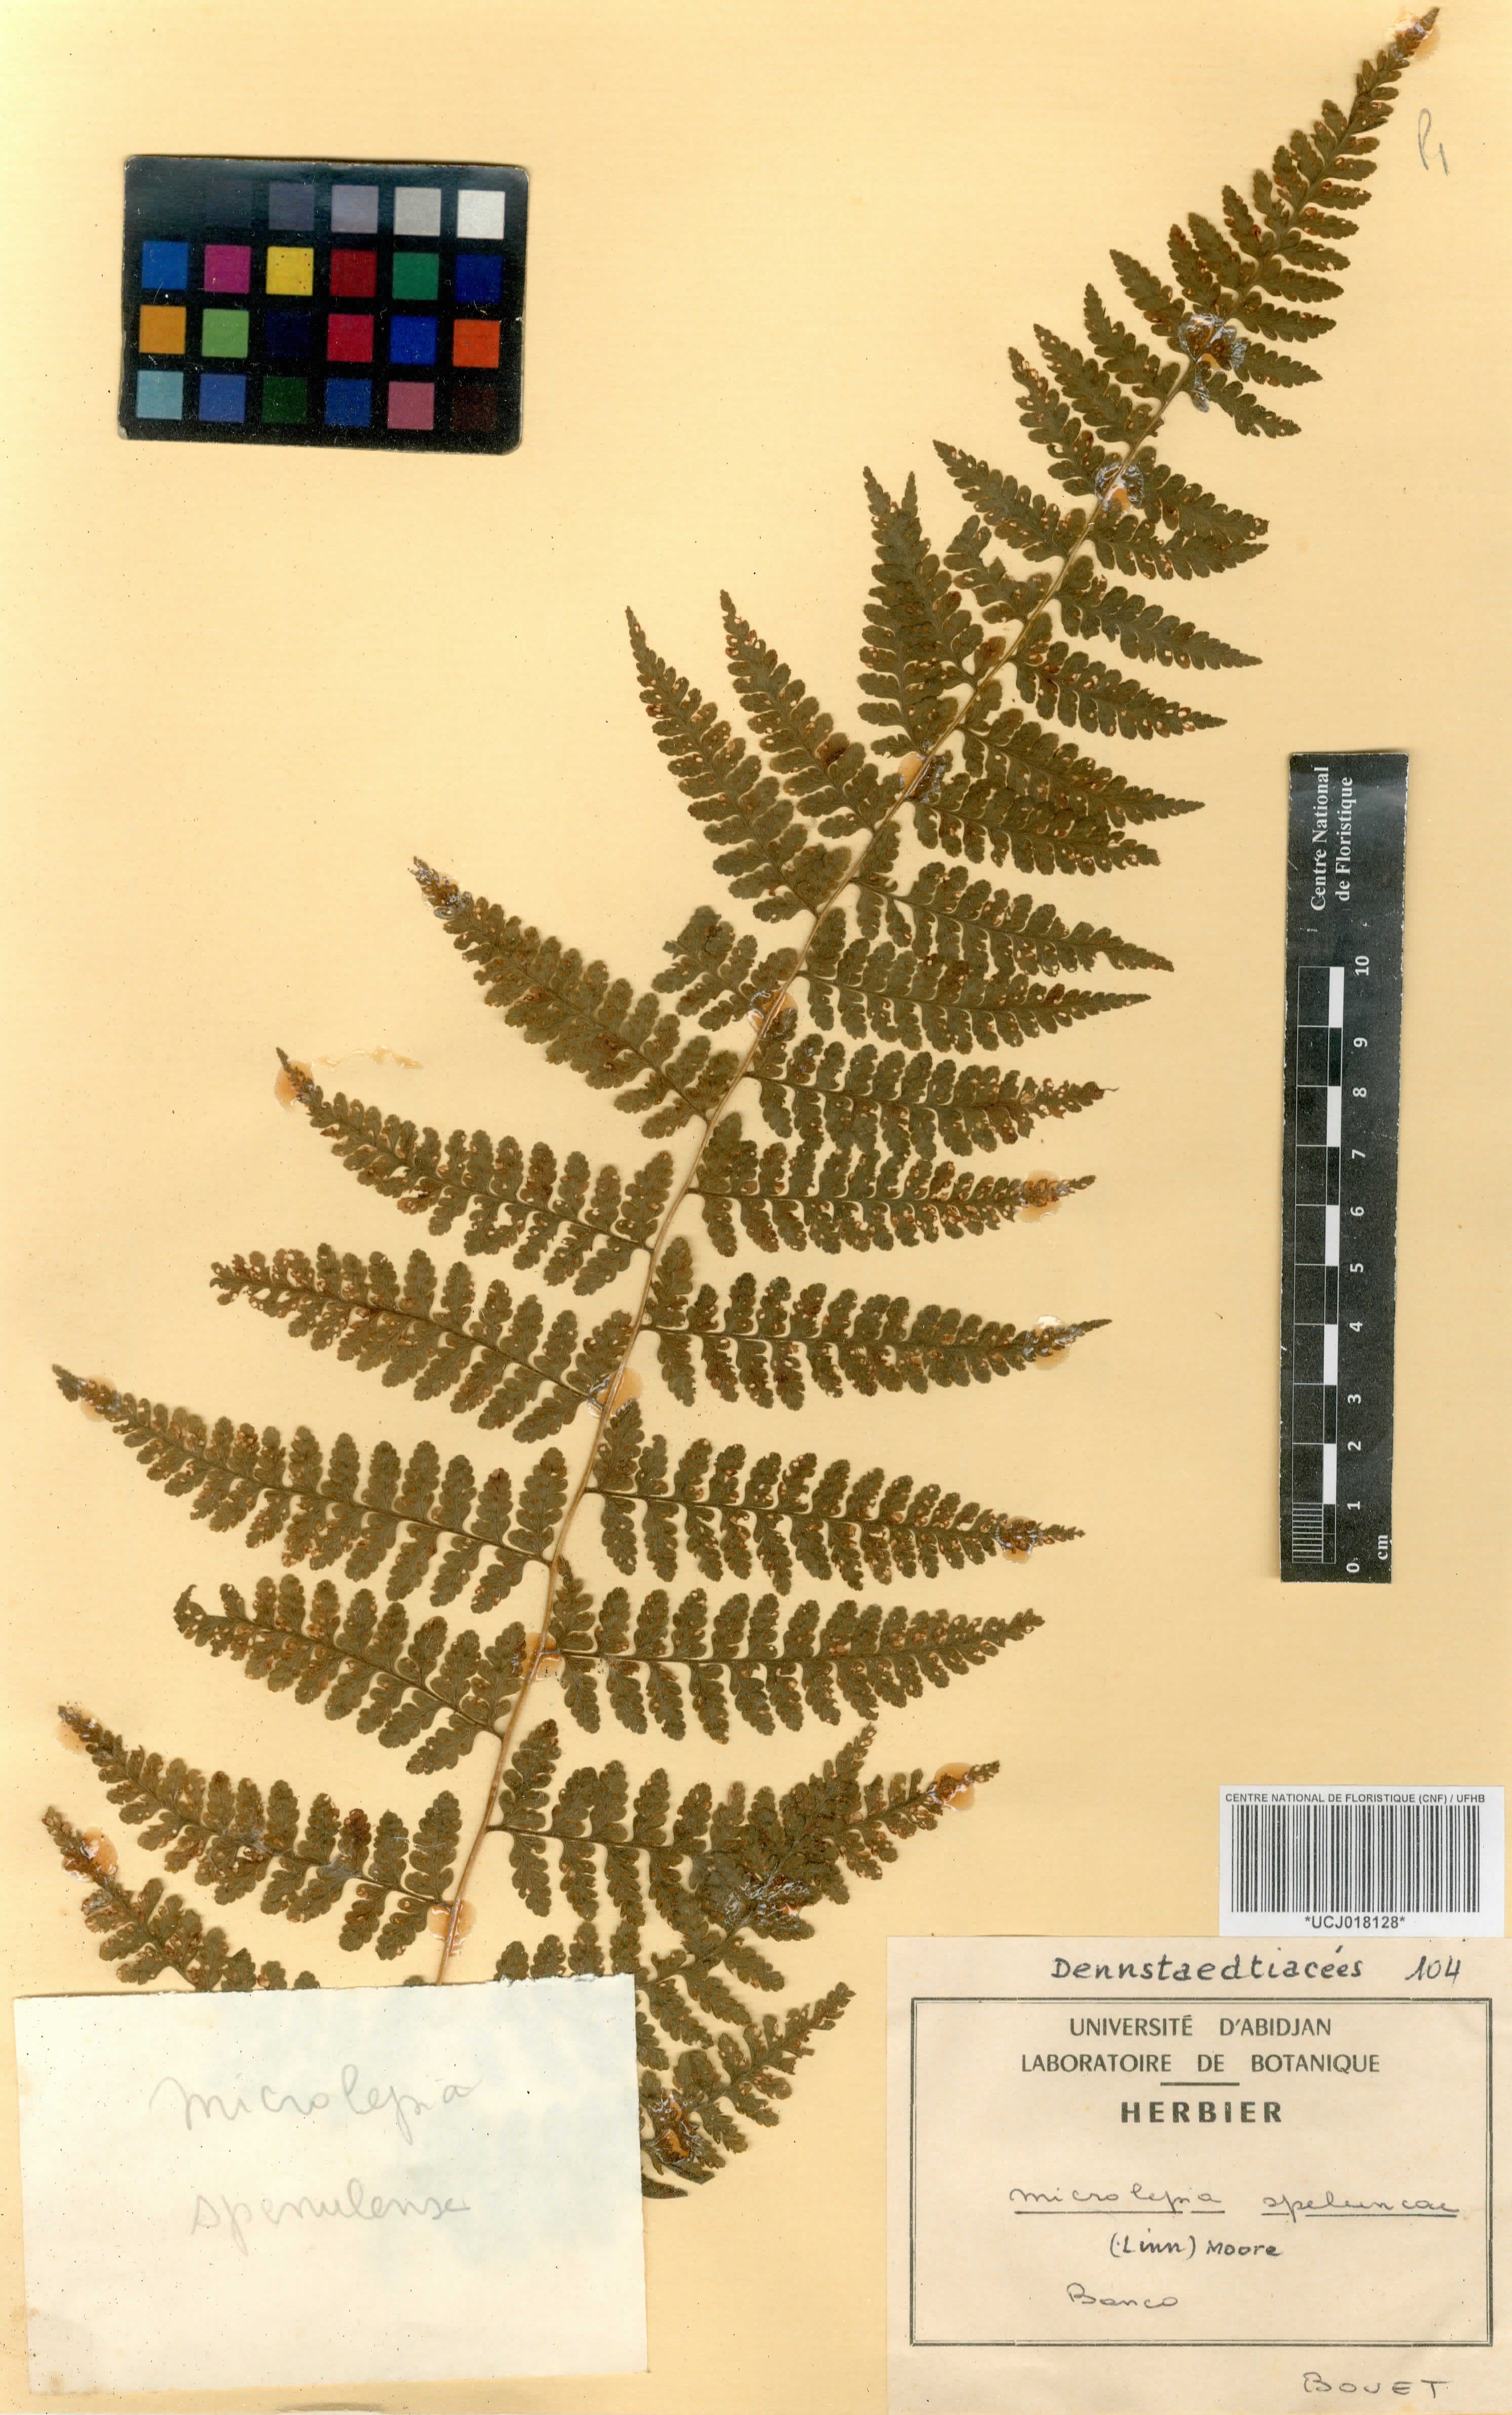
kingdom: Plantae
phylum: Tracheophyta
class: Polypodiopsida
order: Polypodiales
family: Dennstaedtiaceae
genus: Microlepia
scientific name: Microlepia speluncae
